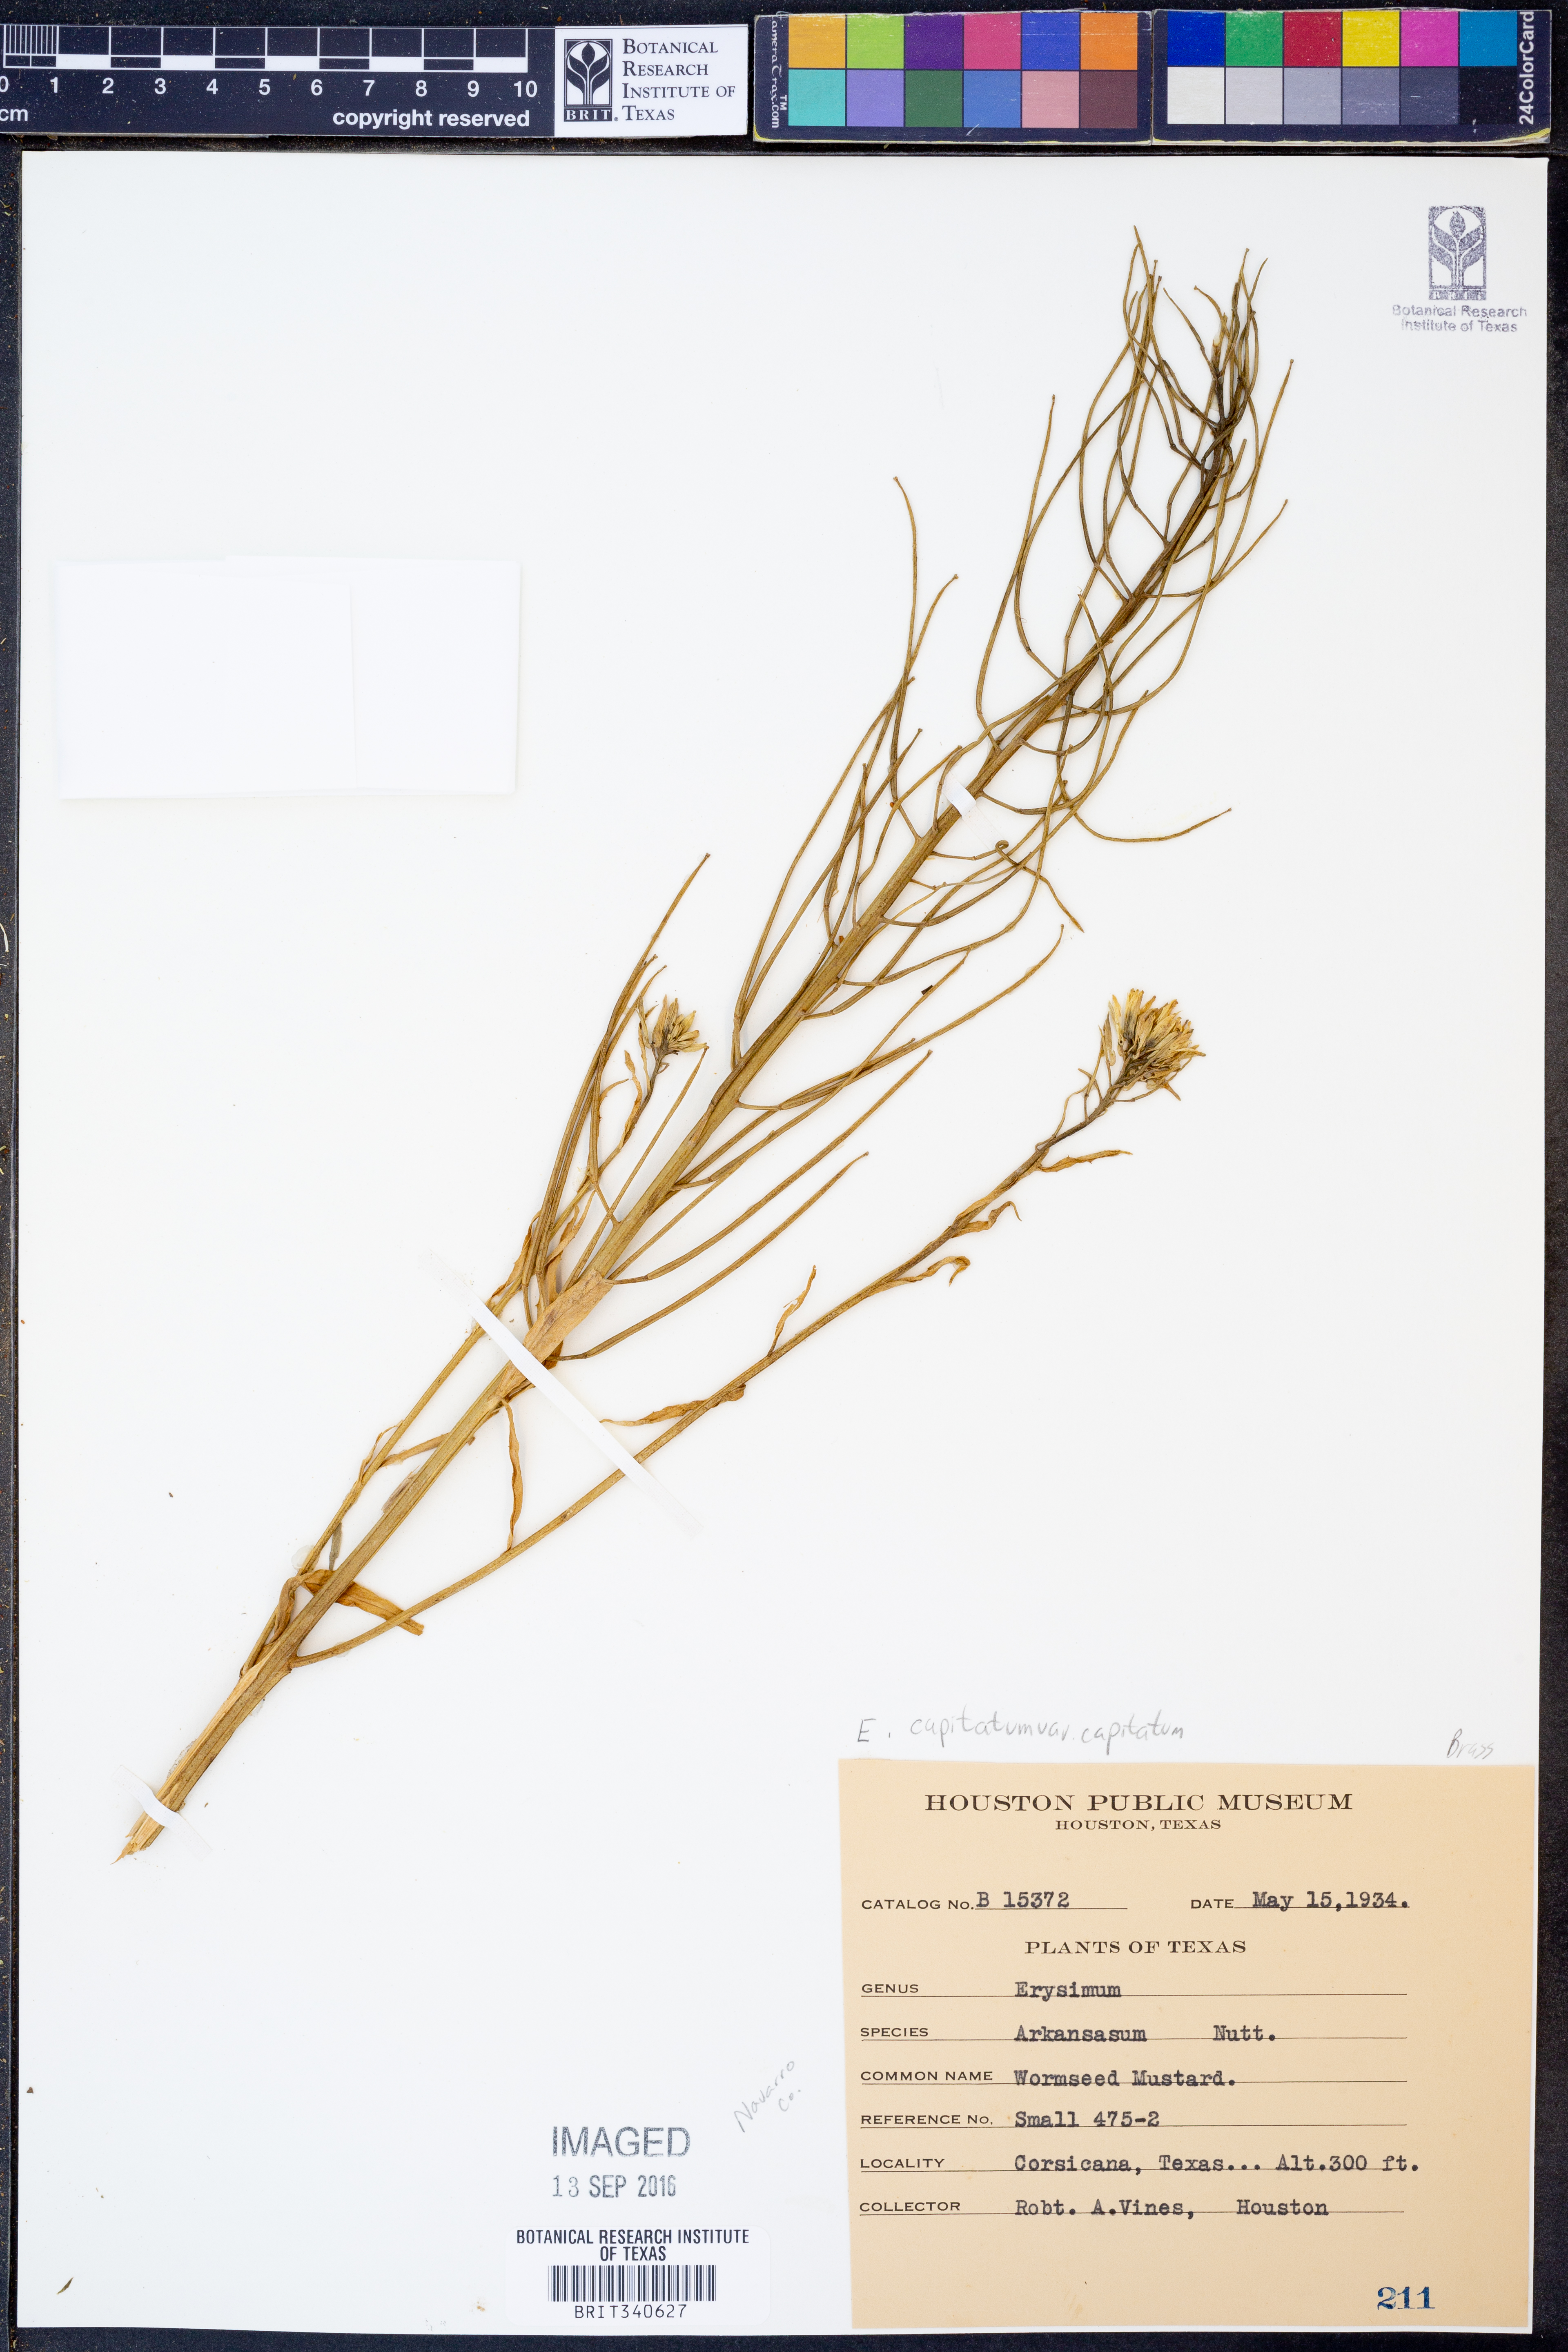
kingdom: Plantae
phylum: Tracheophyta
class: Magnoliopsida
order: Brassicales
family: Brassicaceae
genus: Erysimum
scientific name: Erysimum capitatum
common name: Western wallflower
